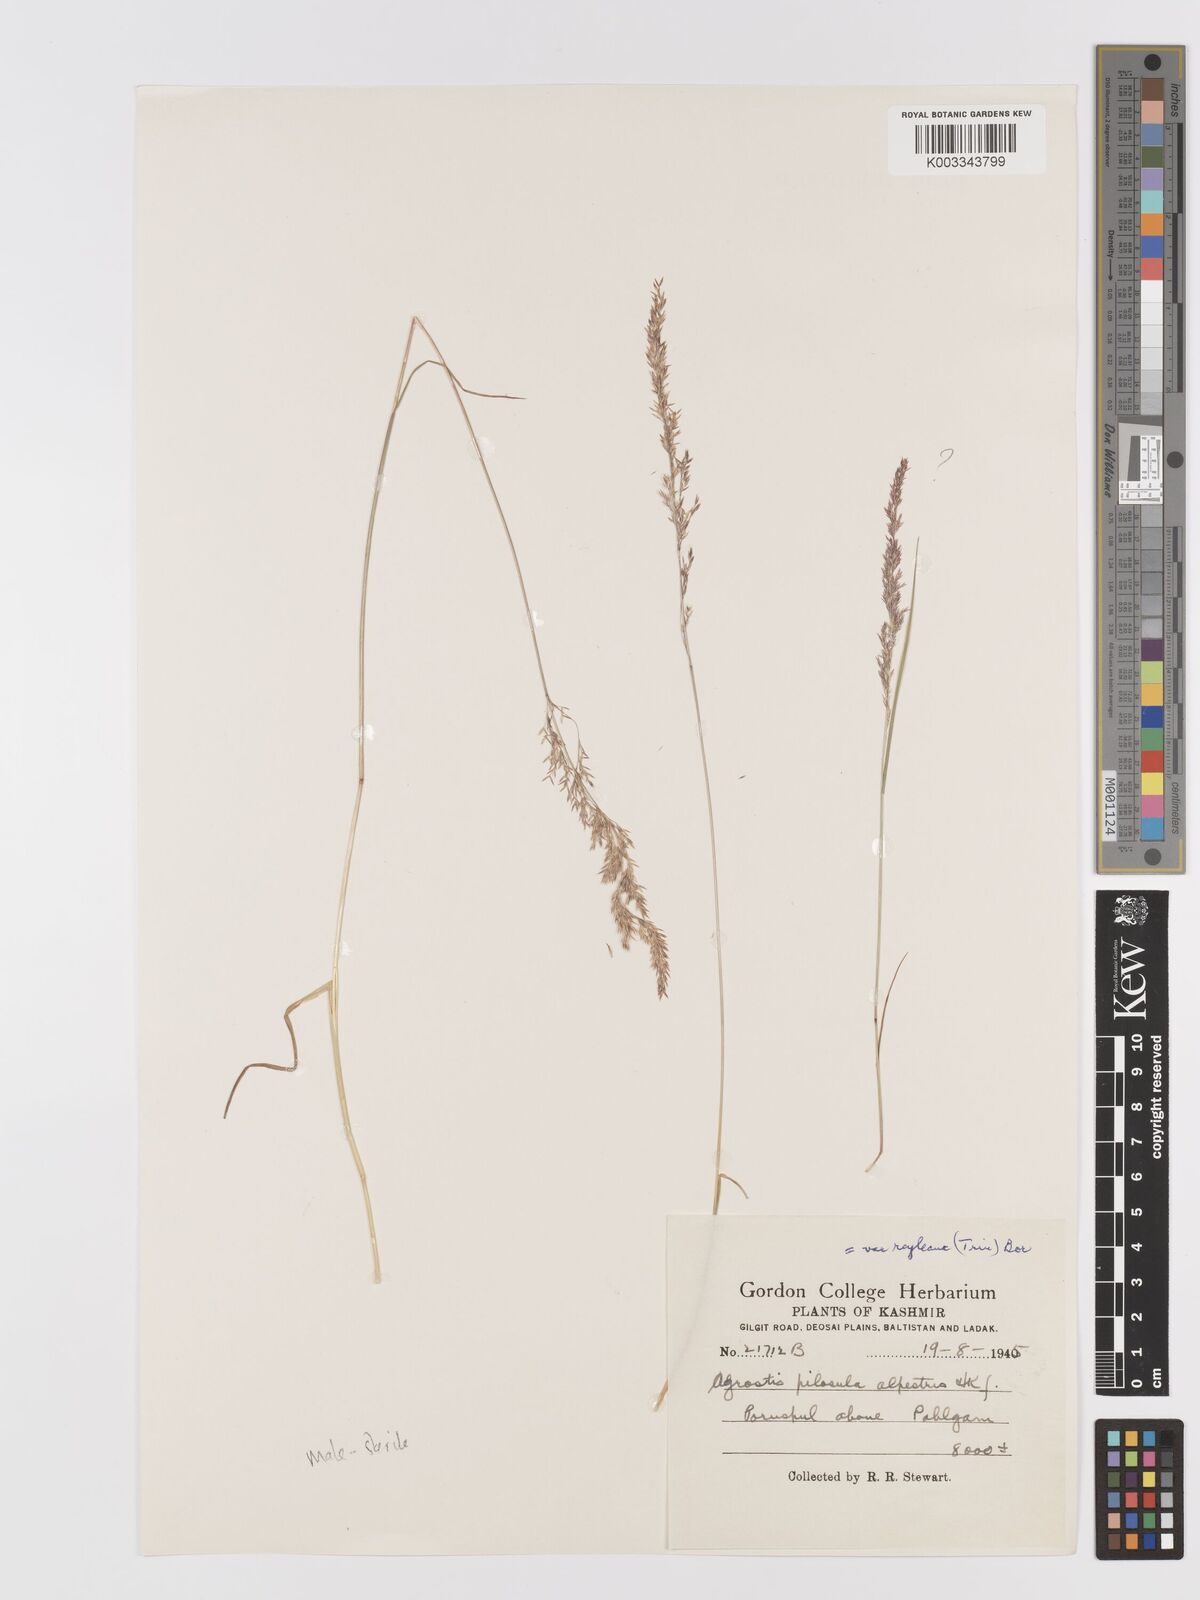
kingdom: Plantae
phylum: Tracheophyta
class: Liliopsida
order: Poales
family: Poaceae
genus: Agrostis
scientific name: Agrostis pilosula
